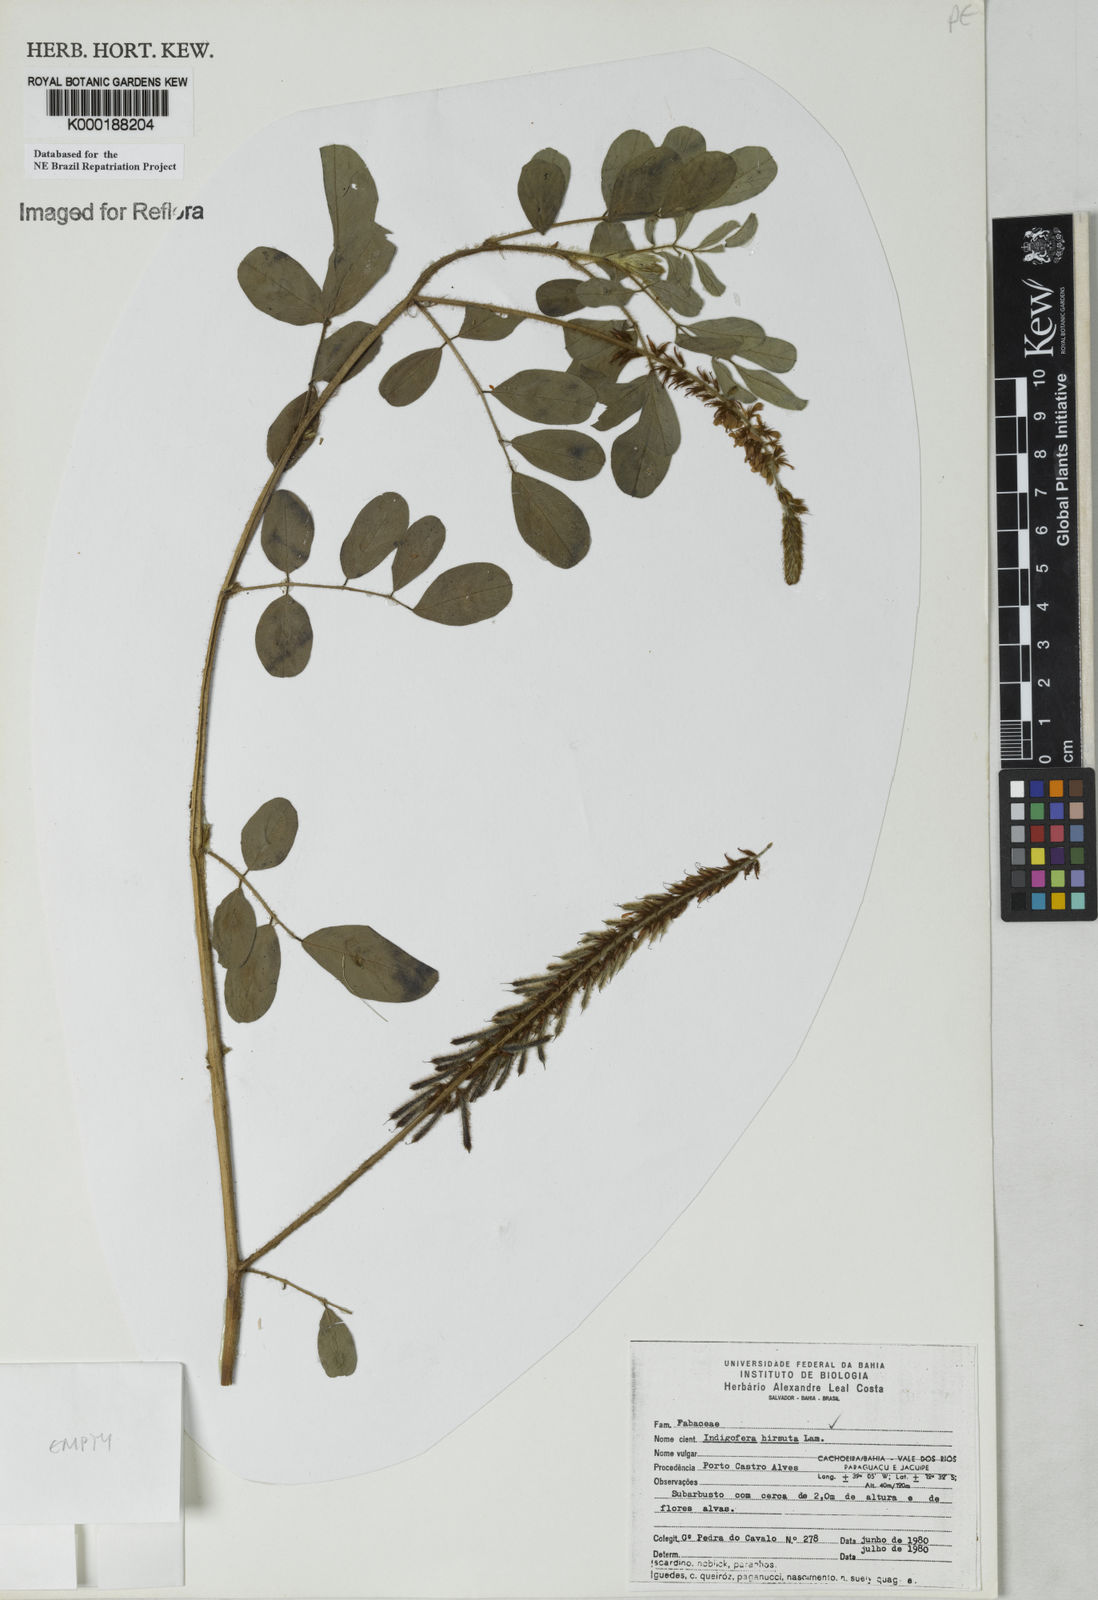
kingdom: Plantae
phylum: Tracheophyta
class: Magnoliopsida
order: Fabales
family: Fabaceae
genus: Indigofera
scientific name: Indigofera hirsuta
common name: Hairy indigo
